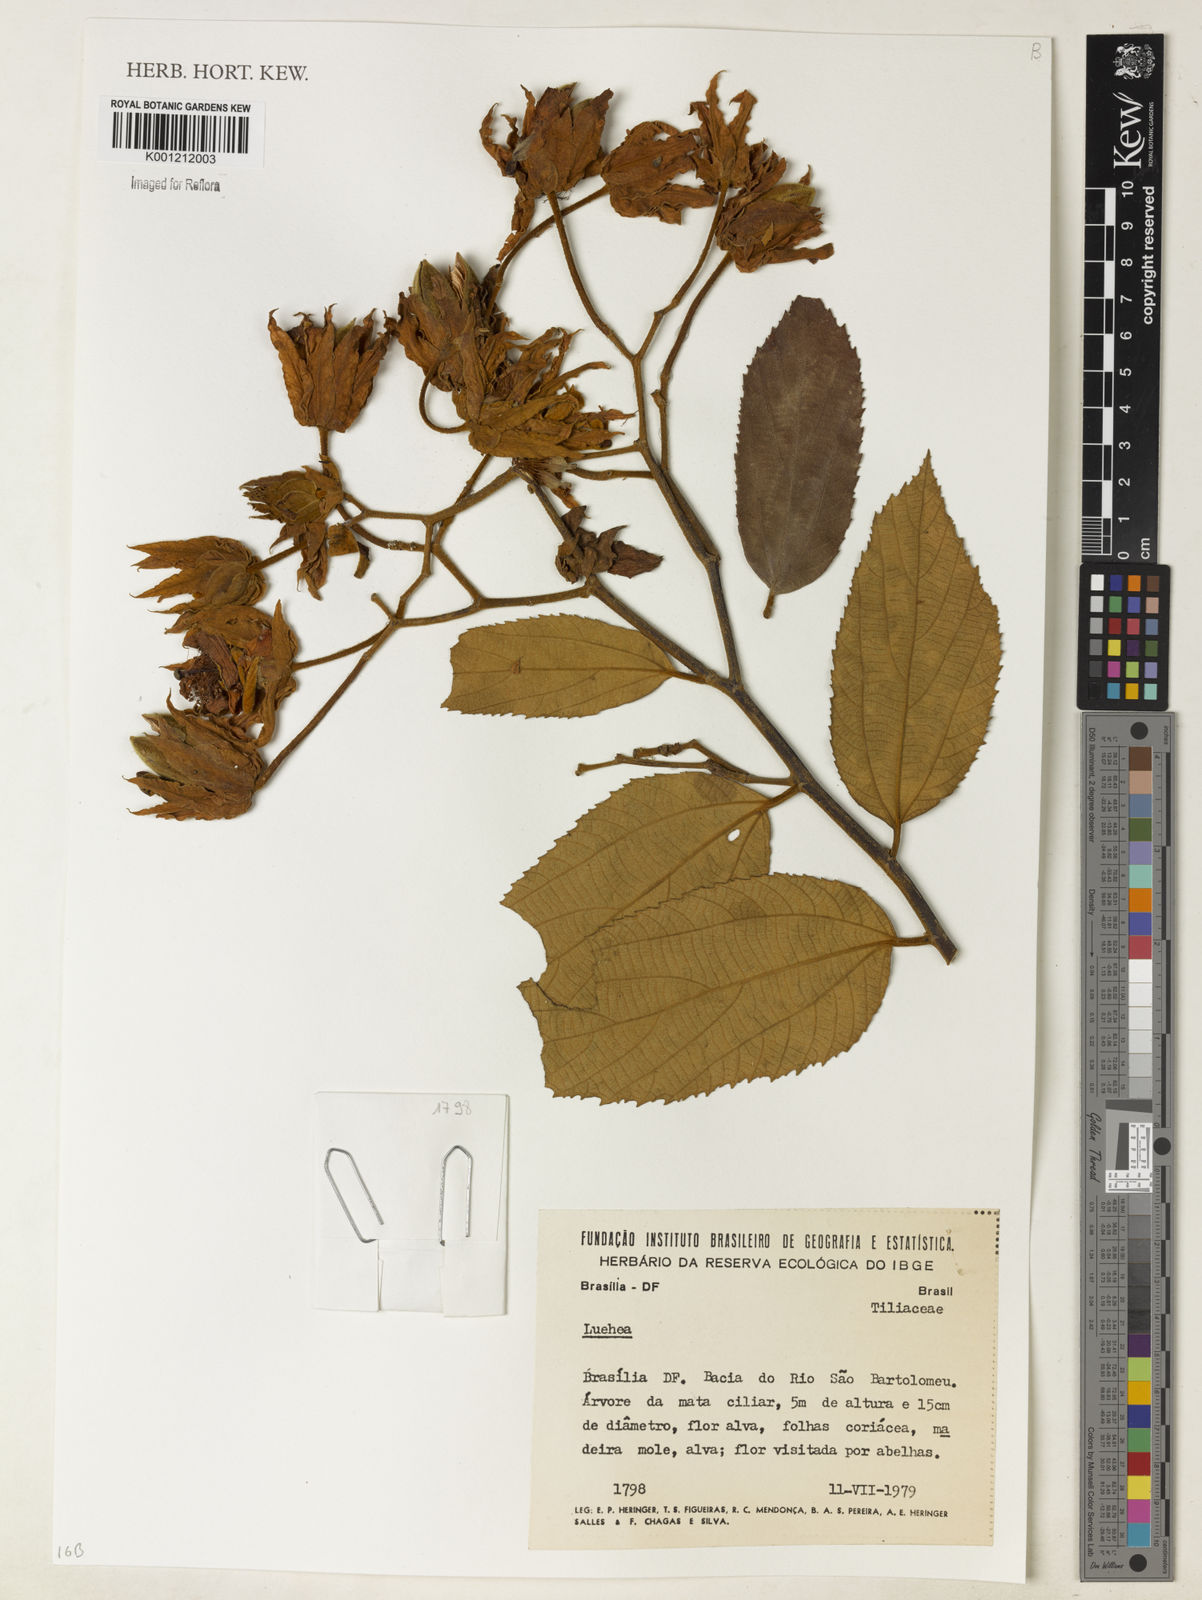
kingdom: Plantae
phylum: Tracheophyta
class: Magnoliopsida
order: Malvales
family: Malvaceae
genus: Luehea
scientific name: Luehea
